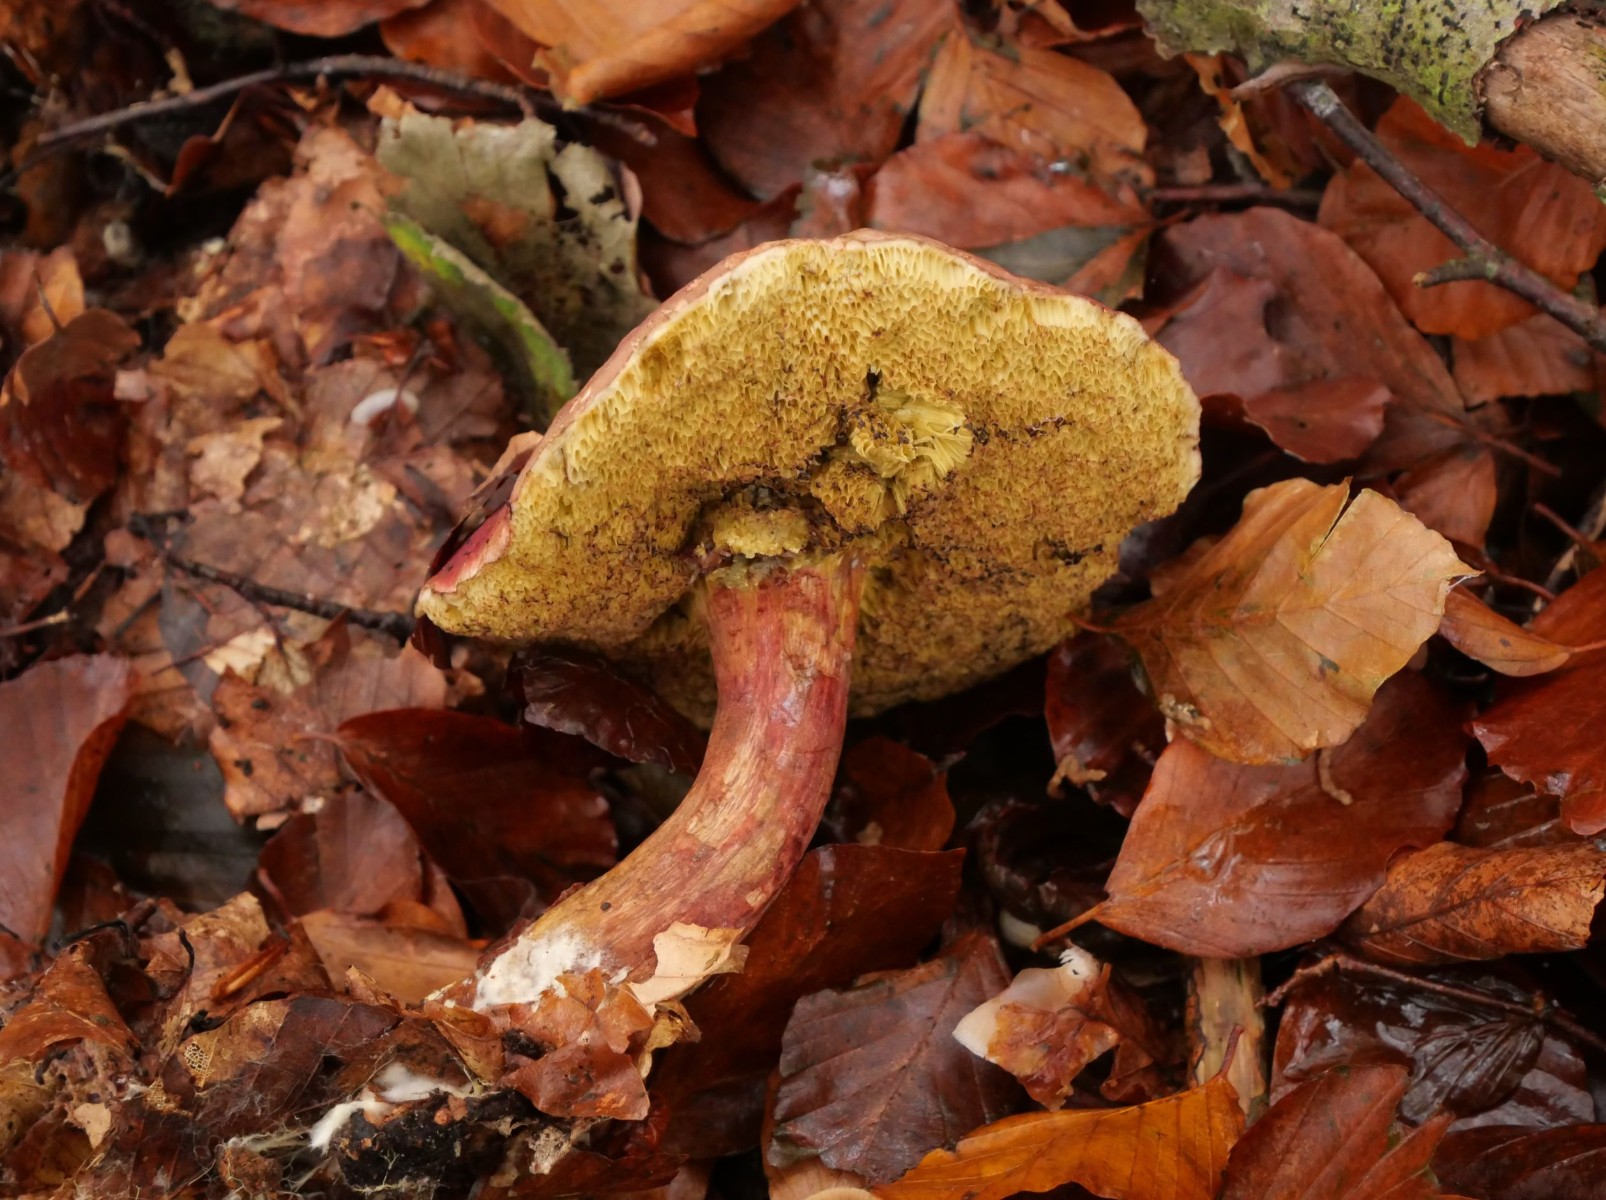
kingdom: Fungi
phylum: Basidiomycota
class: Agaricomycetes
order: Boletales
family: Boletaceae
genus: Xerocomellus
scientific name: Xerocomellus pruinatus
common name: dugget rørhat
